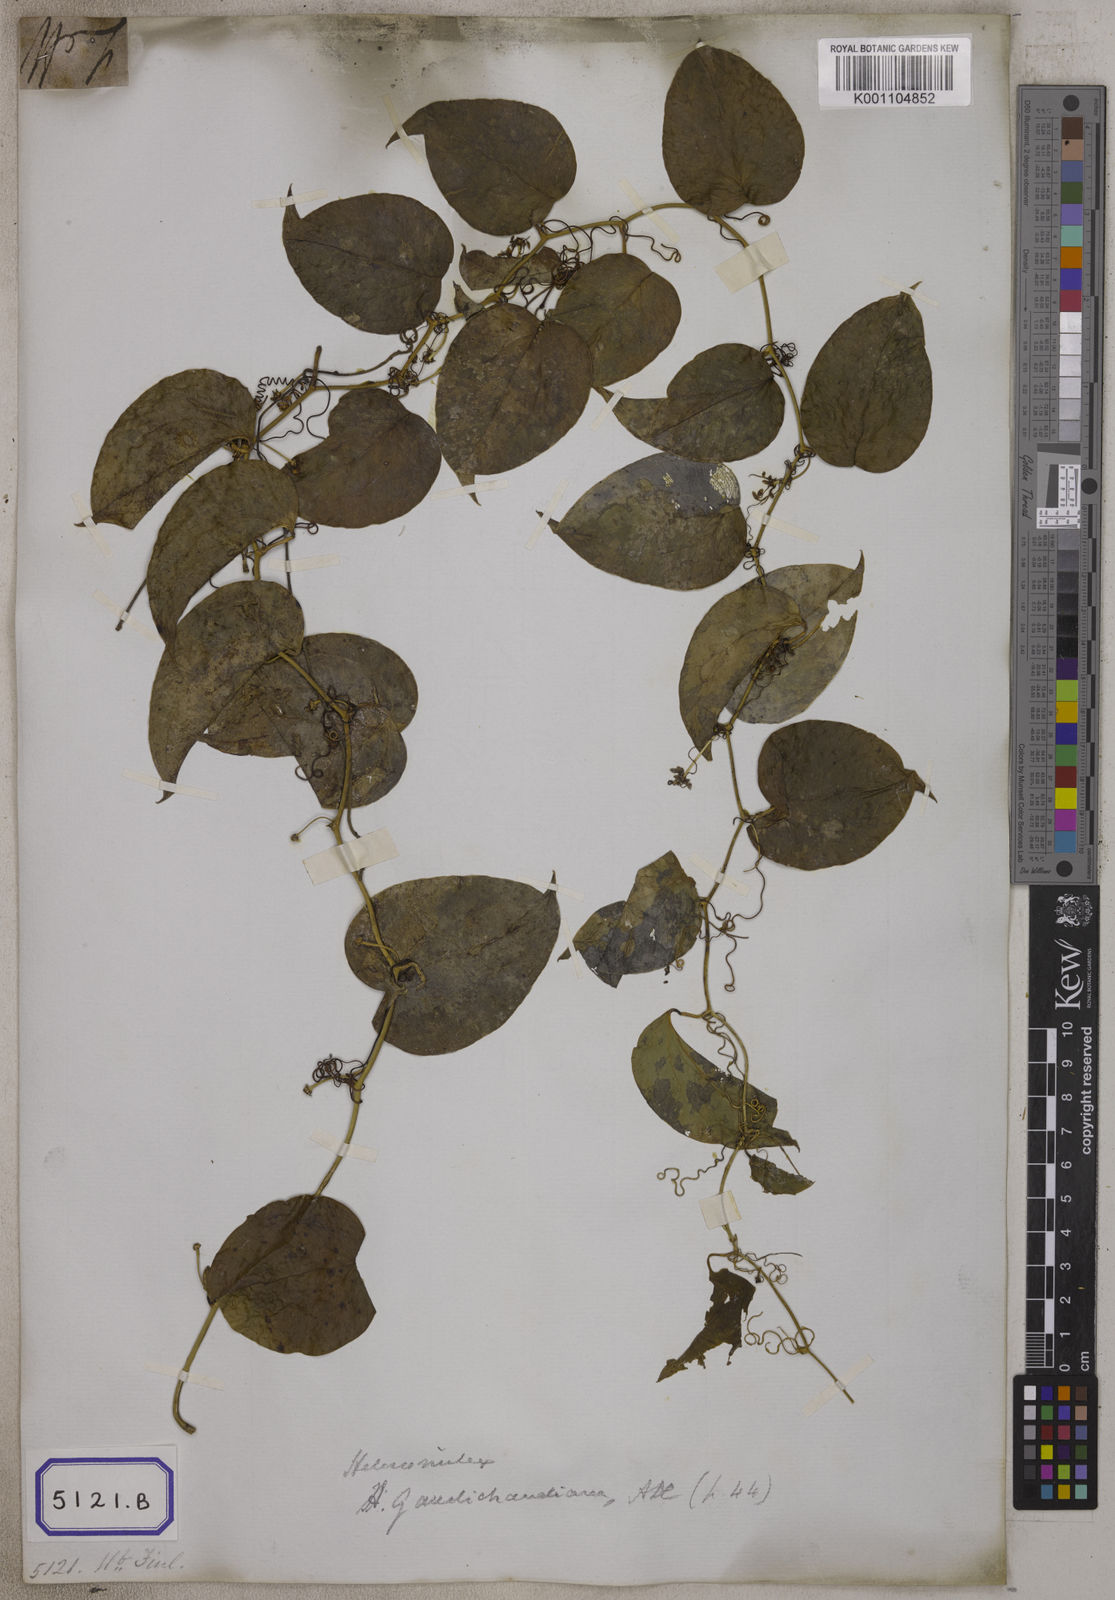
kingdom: Plantae
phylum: Tracheophyta
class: Liliopsida
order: Liliales
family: Smilacaceae
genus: Smilax
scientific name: Smilax
